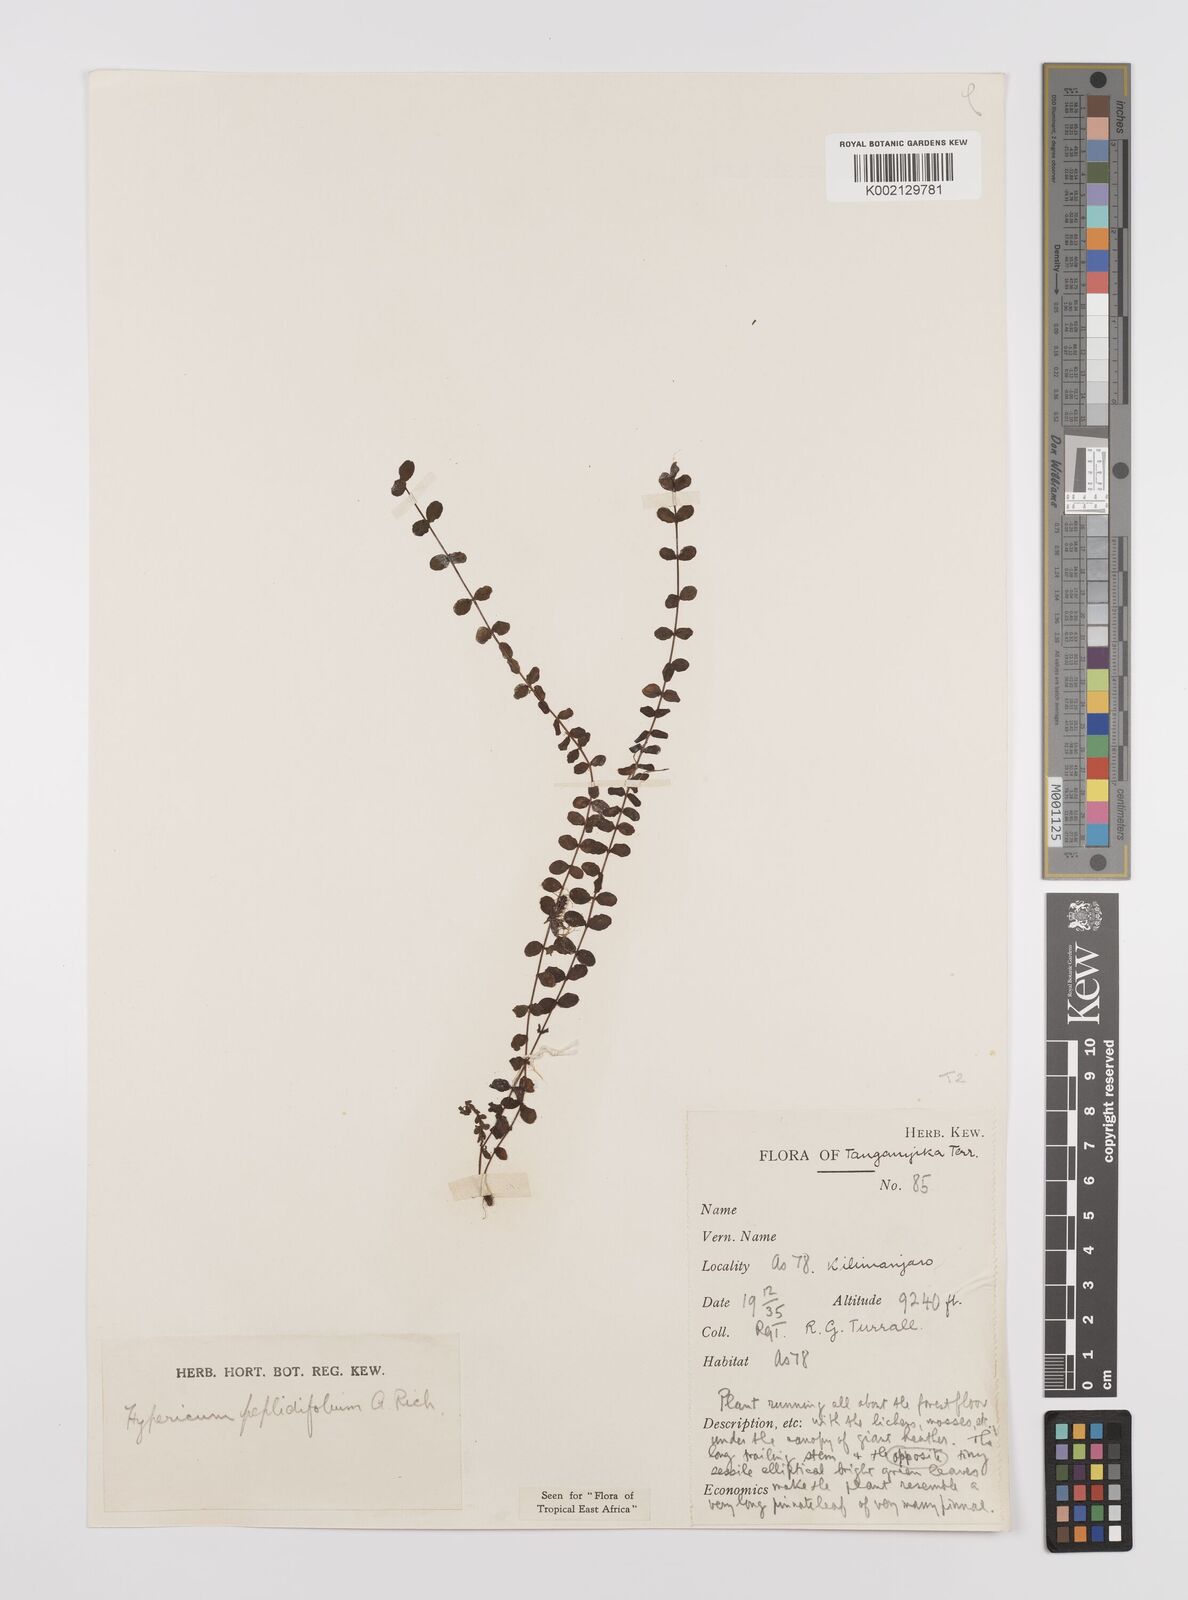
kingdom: Plantae
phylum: Tracheophyta
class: Magnoliopsida
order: Malpighiales
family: Hypericaceae
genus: Hypericum
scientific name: Hypericum peplidifolium
